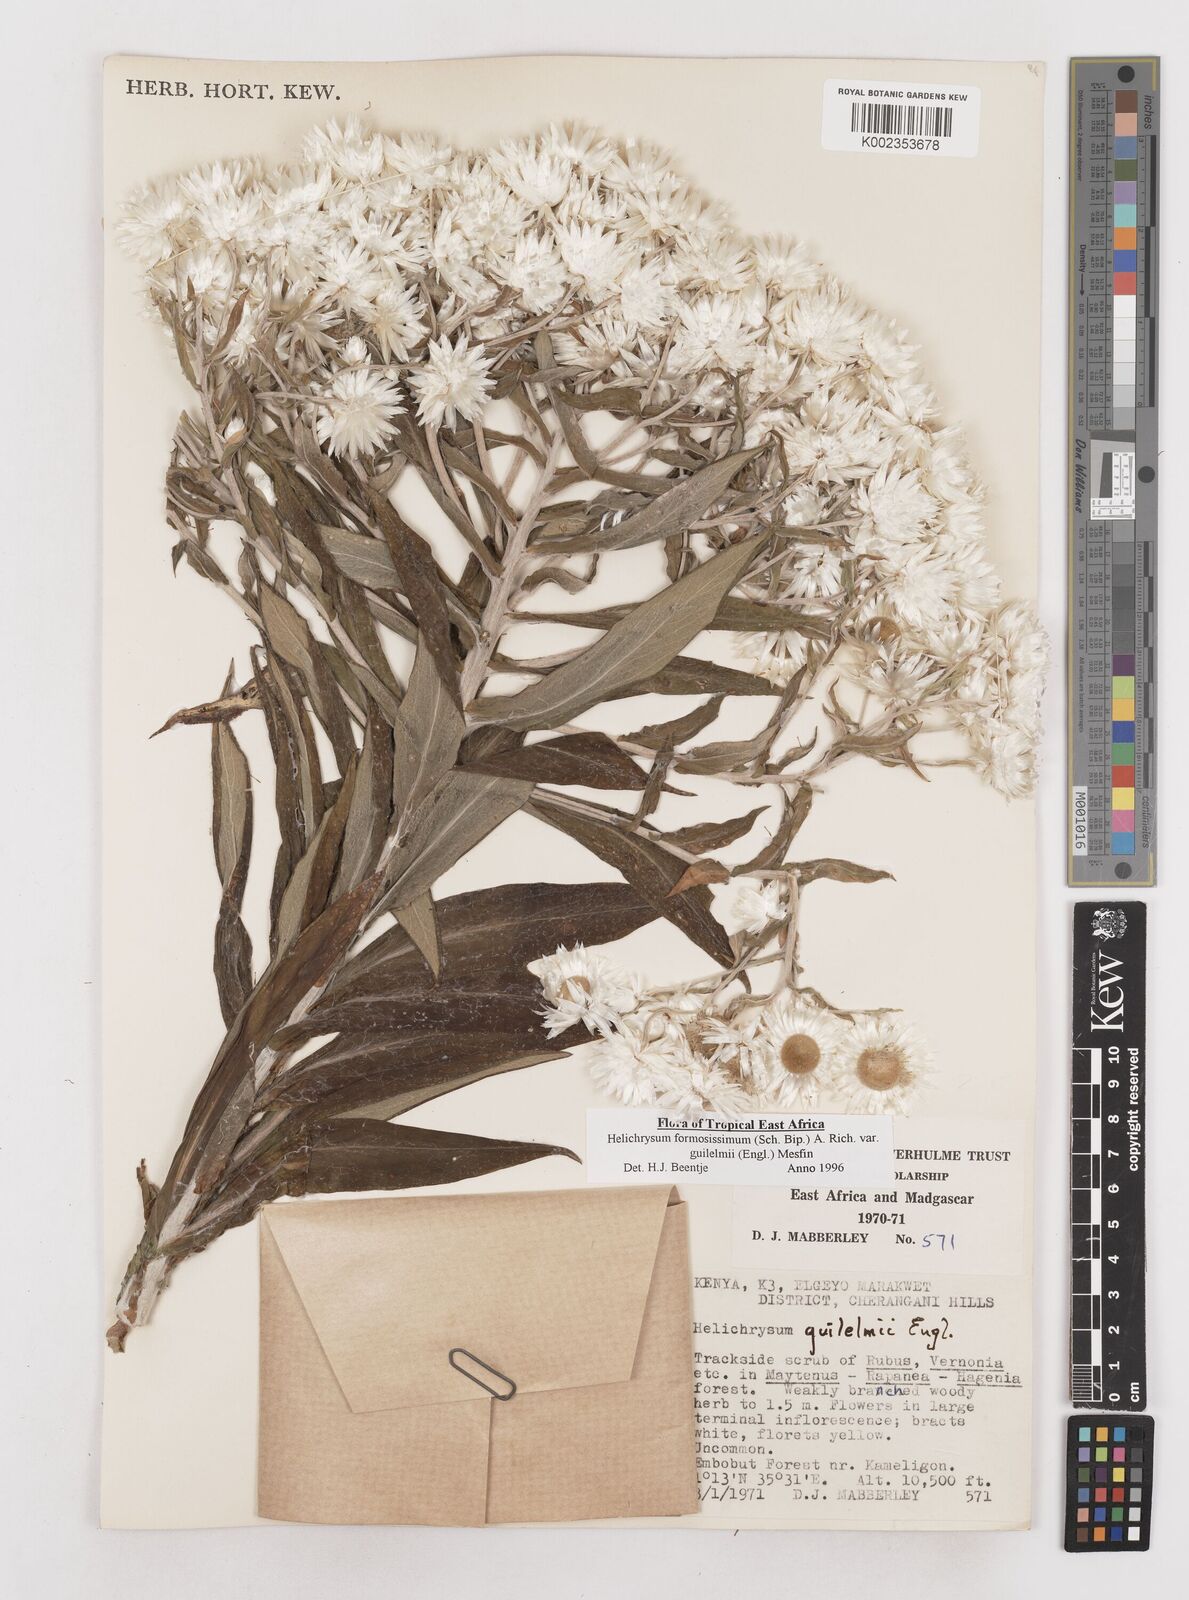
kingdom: Plantae
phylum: Tracheophyta
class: Magnoliopsida
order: Asterales
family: Asteraceae
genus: Helichrysum
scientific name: Helichrysum formosissimum
